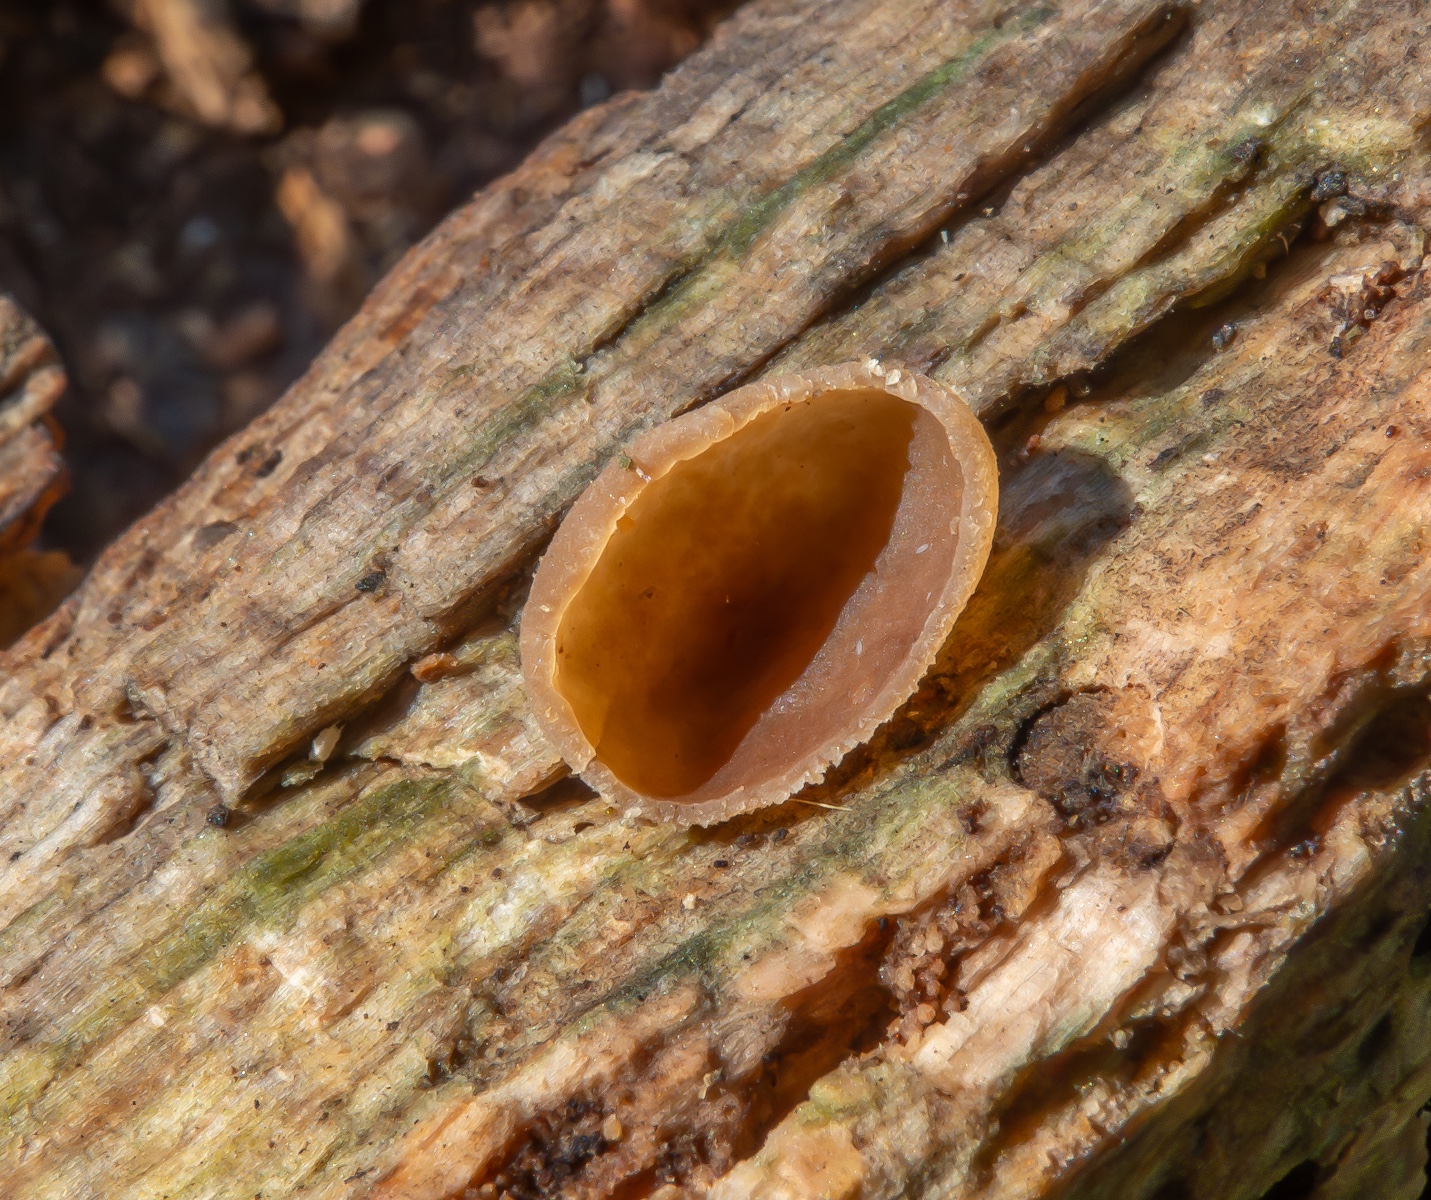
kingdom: Fungi
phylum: Ascomycota
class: Pezizomycetes
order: Pezizales
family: Pezizaceae
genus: Peziza
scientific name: Peziza varia
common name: Ved-bægersvamp
